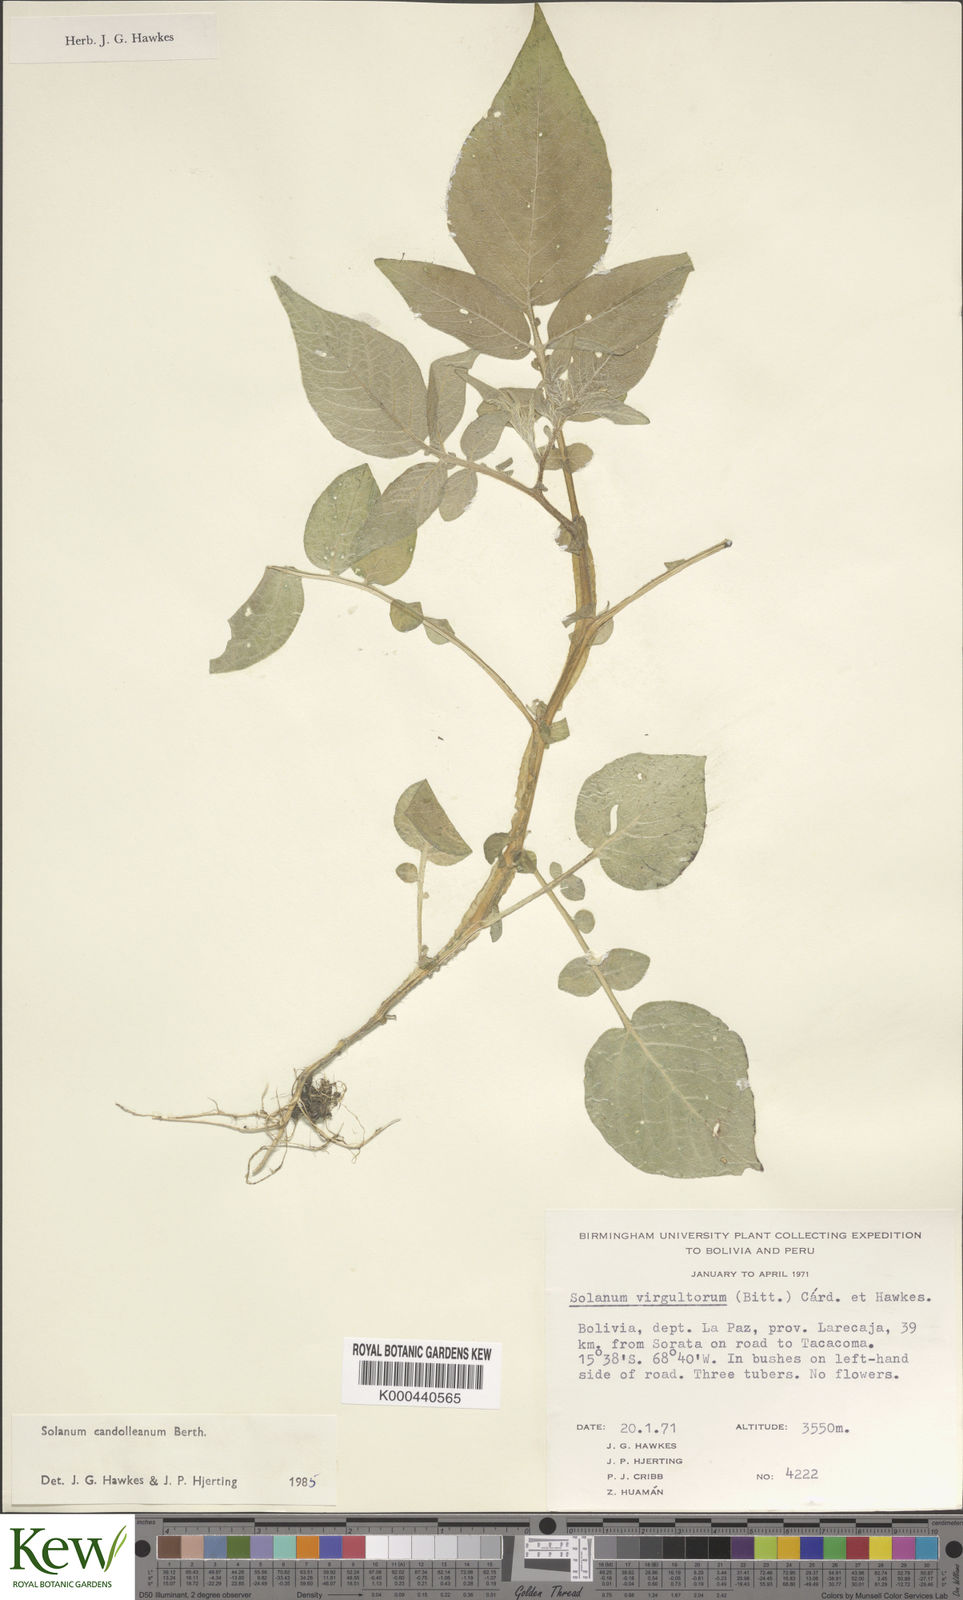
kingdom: Plantae
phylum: Tracheophyta
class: Magnoliopsida
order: Solanales
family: Solanaceae
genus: Solanum
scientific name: Solanum brevicaule
